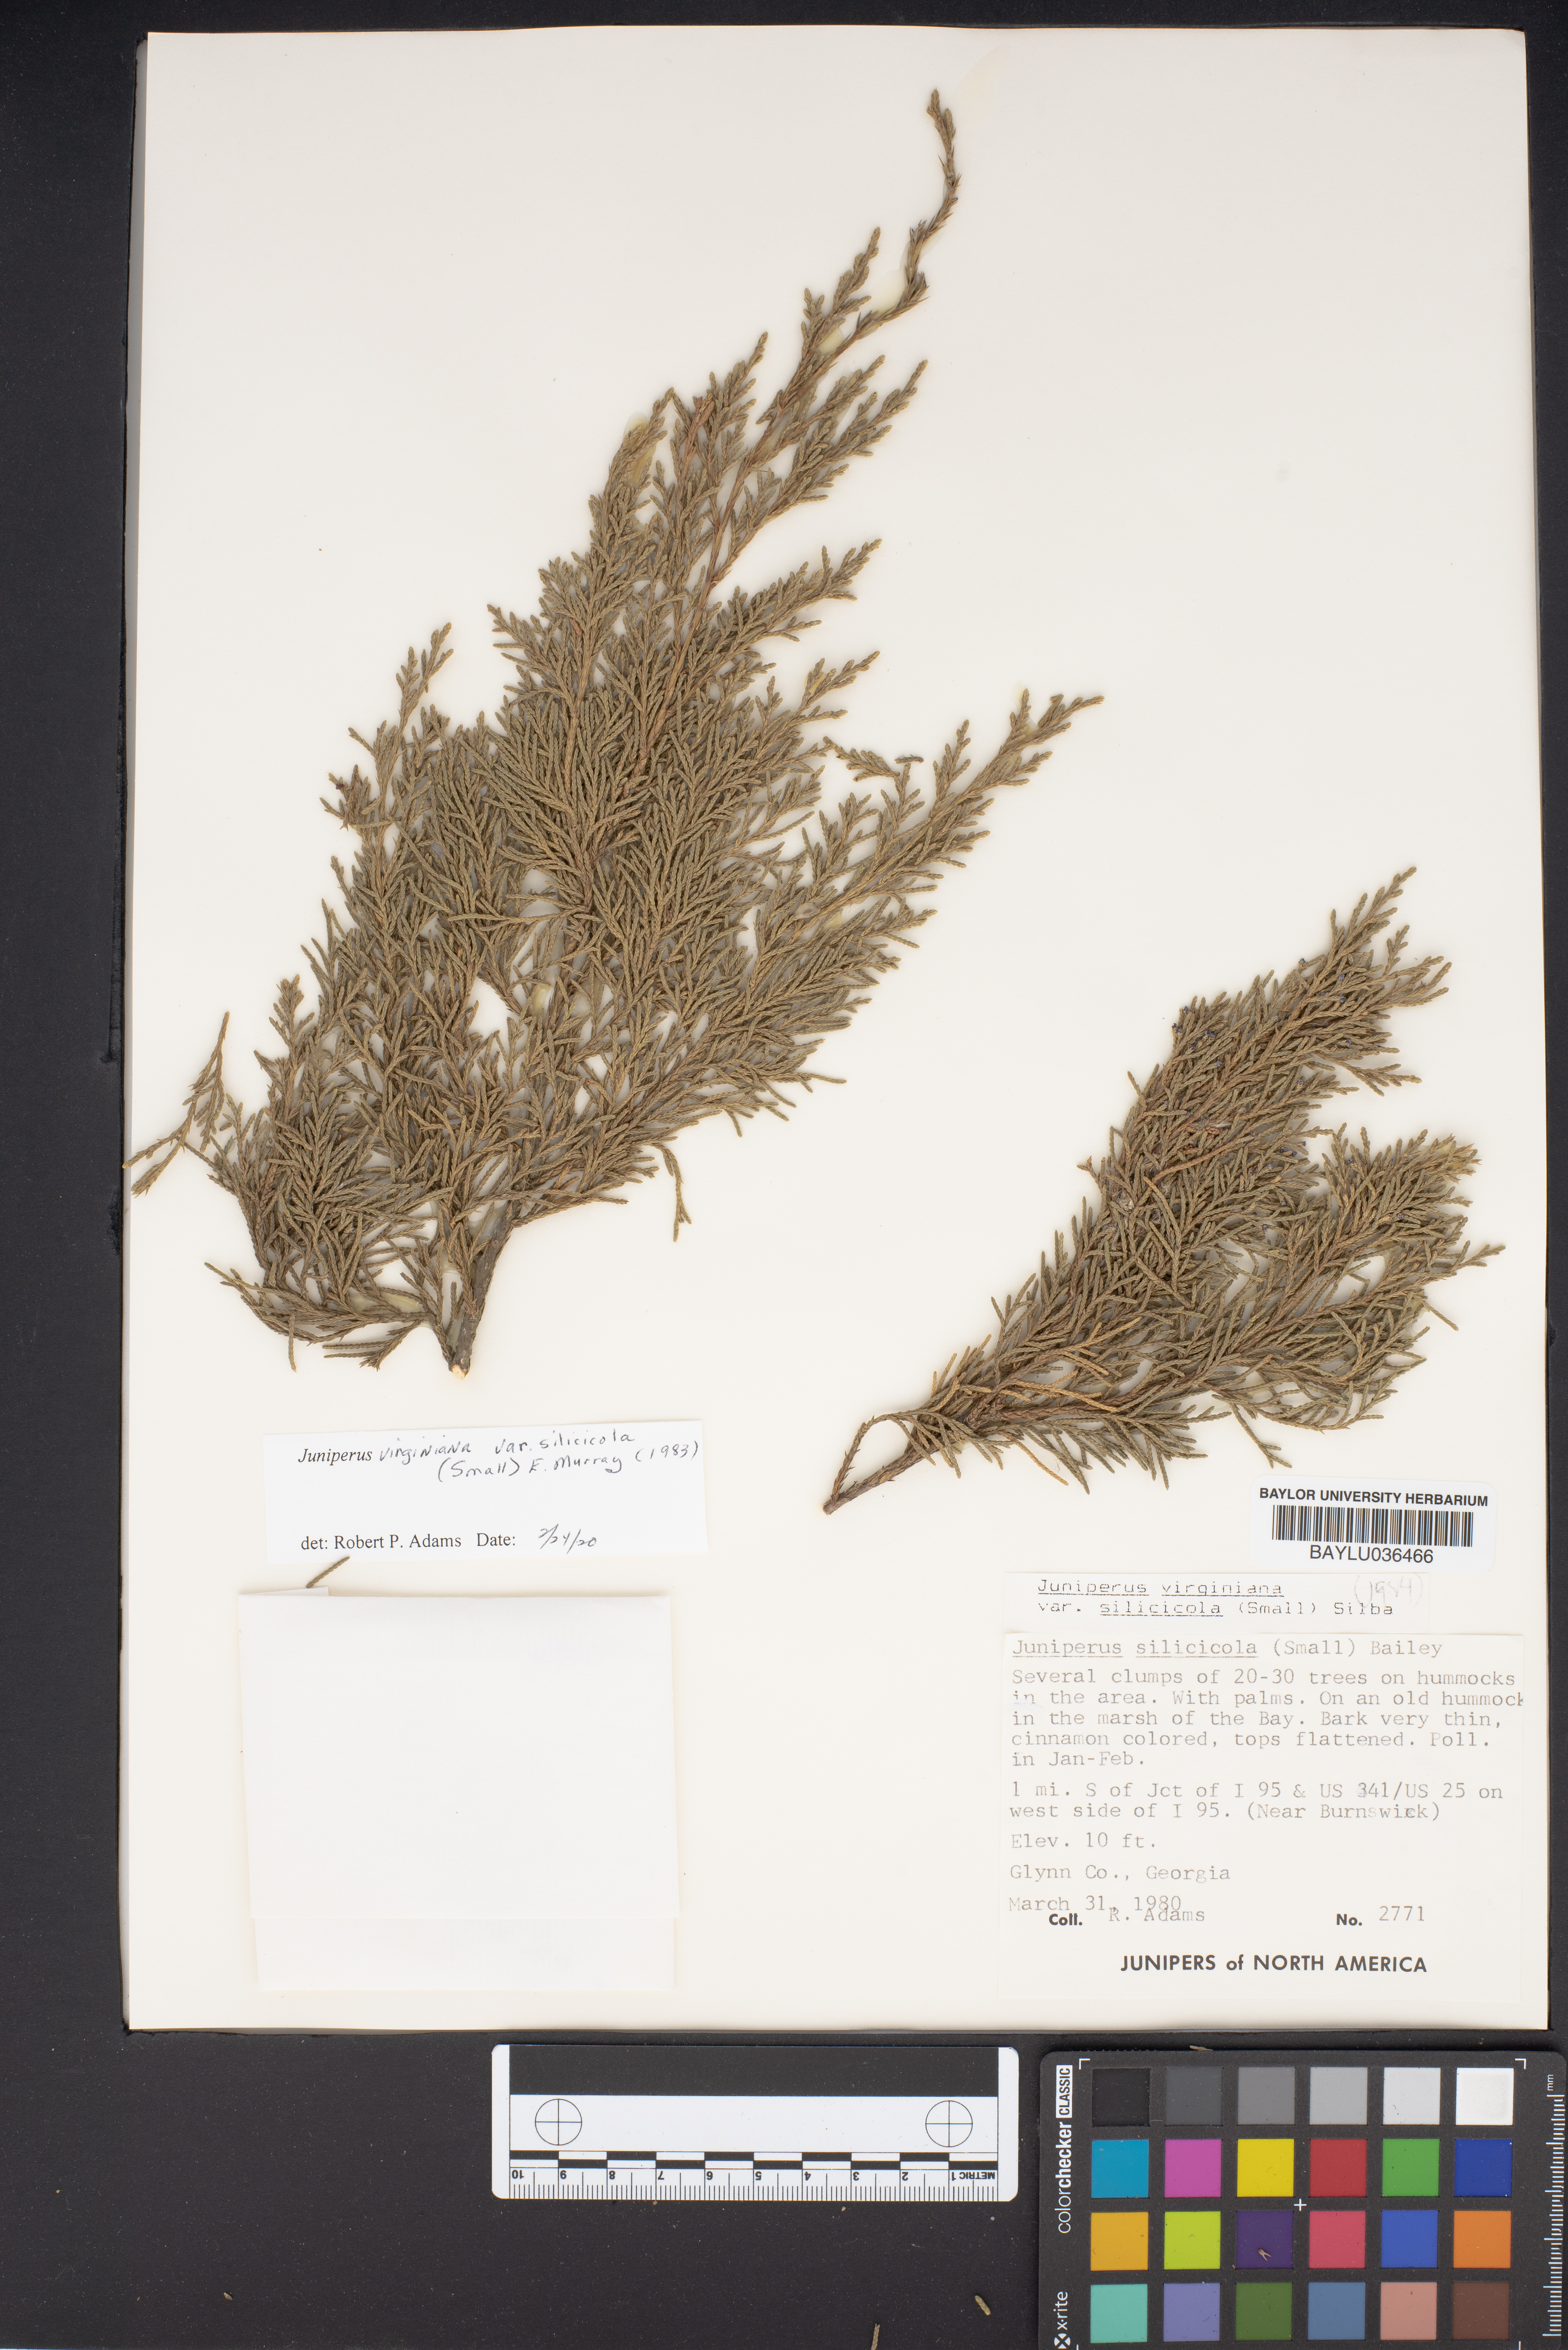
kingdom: Plantae
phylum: Tracheophyta
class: Pinopsida
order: Pinales
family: Cupressaceae
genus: Juniperus
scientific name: Juniperus virginiana
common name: Red juniper
